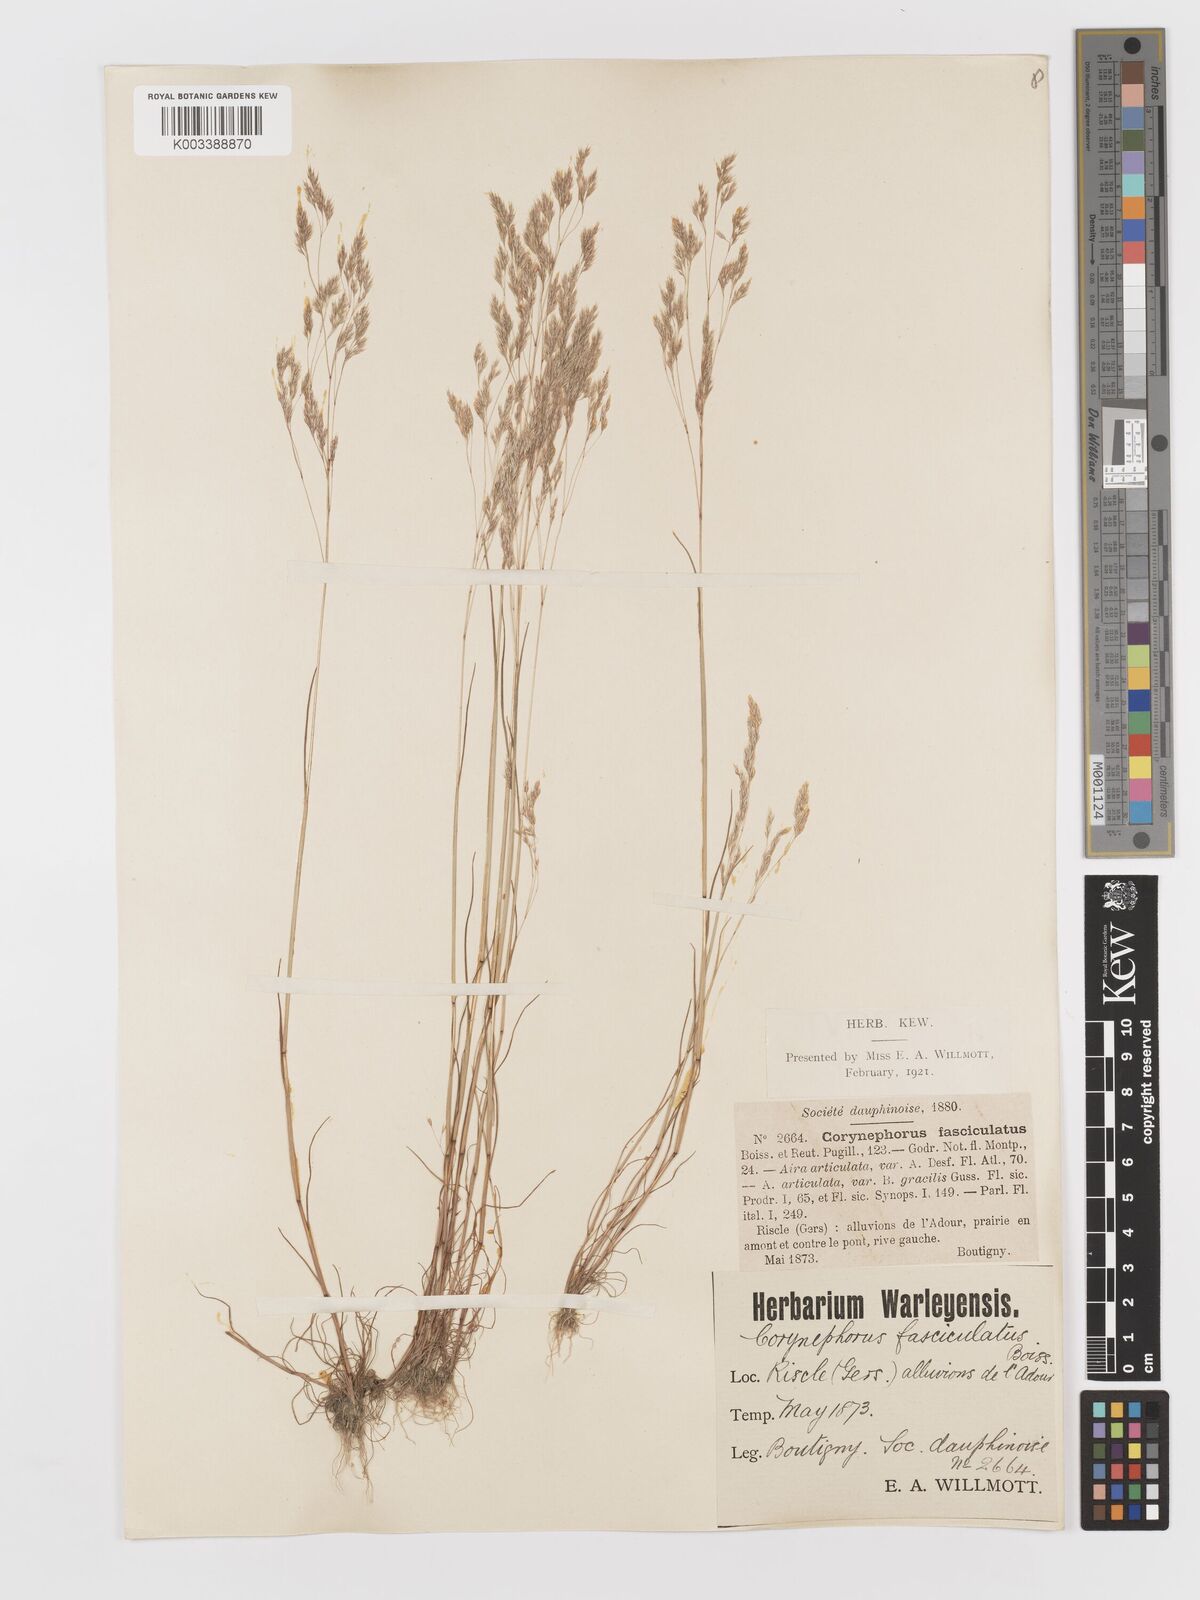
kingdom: Plantae
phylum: Tracheophyta
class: Liliopsida
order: Poales
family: Poaceae
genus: Corynephorus
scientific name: Corynephorus fasciculatus
